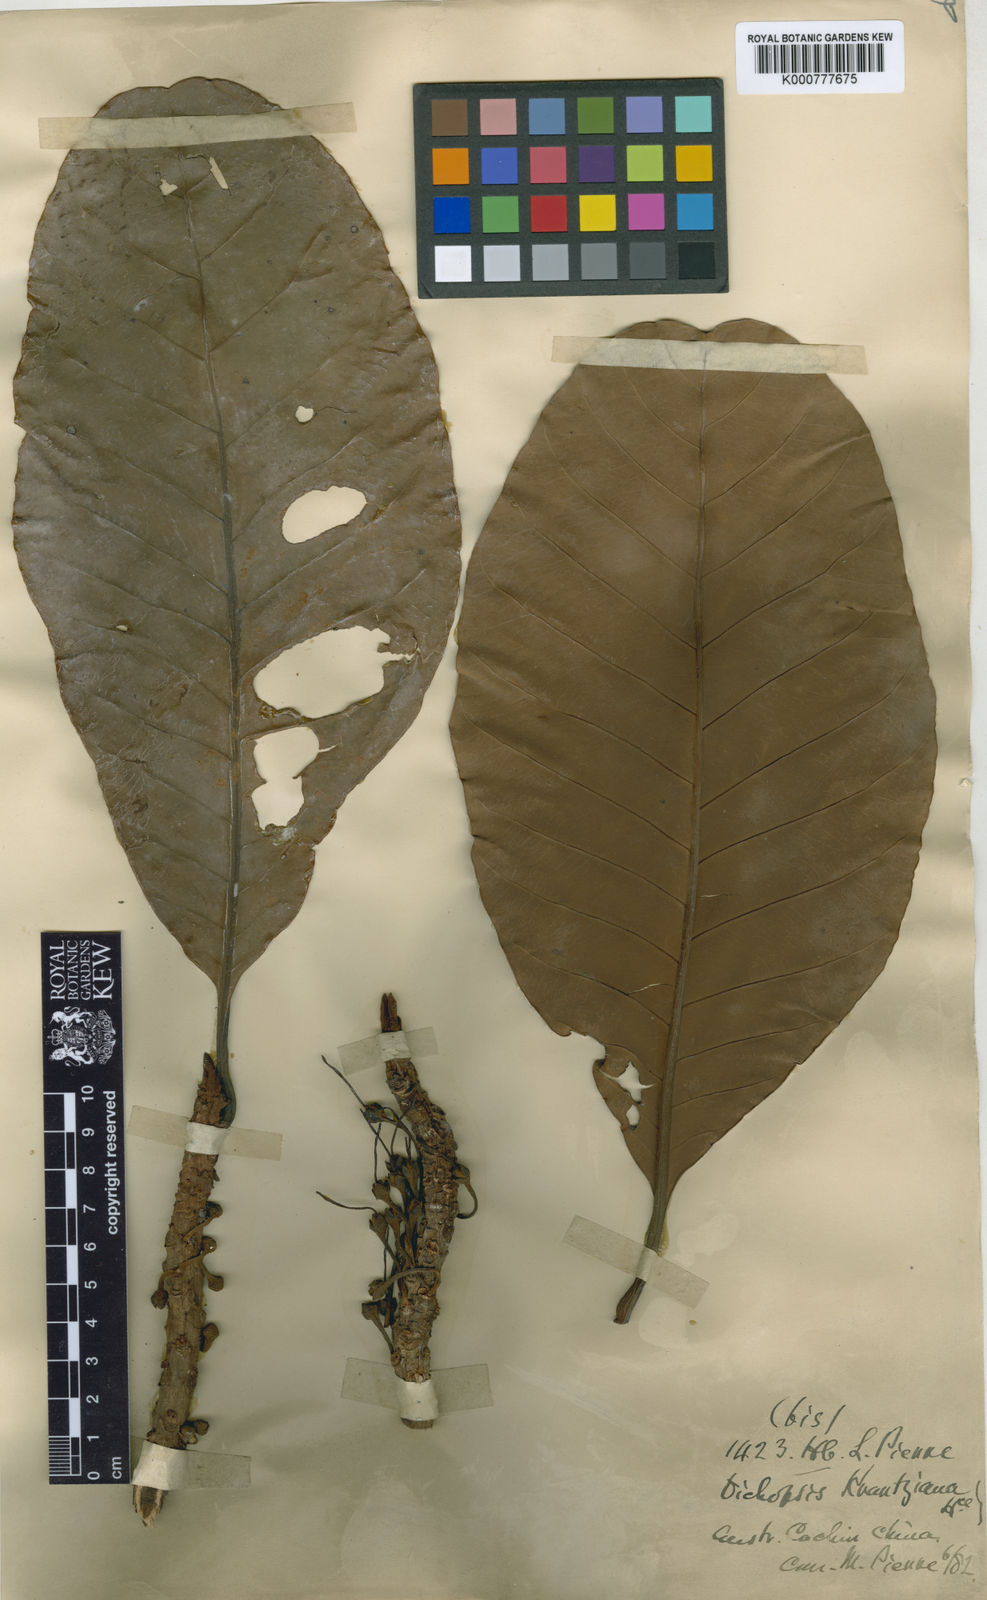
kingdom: Plantae
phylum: Tracheophyta
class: Magnoliopsida
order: Ericales
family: Sapotaceae
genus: Palaquium
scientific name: Palaquium obovatum
